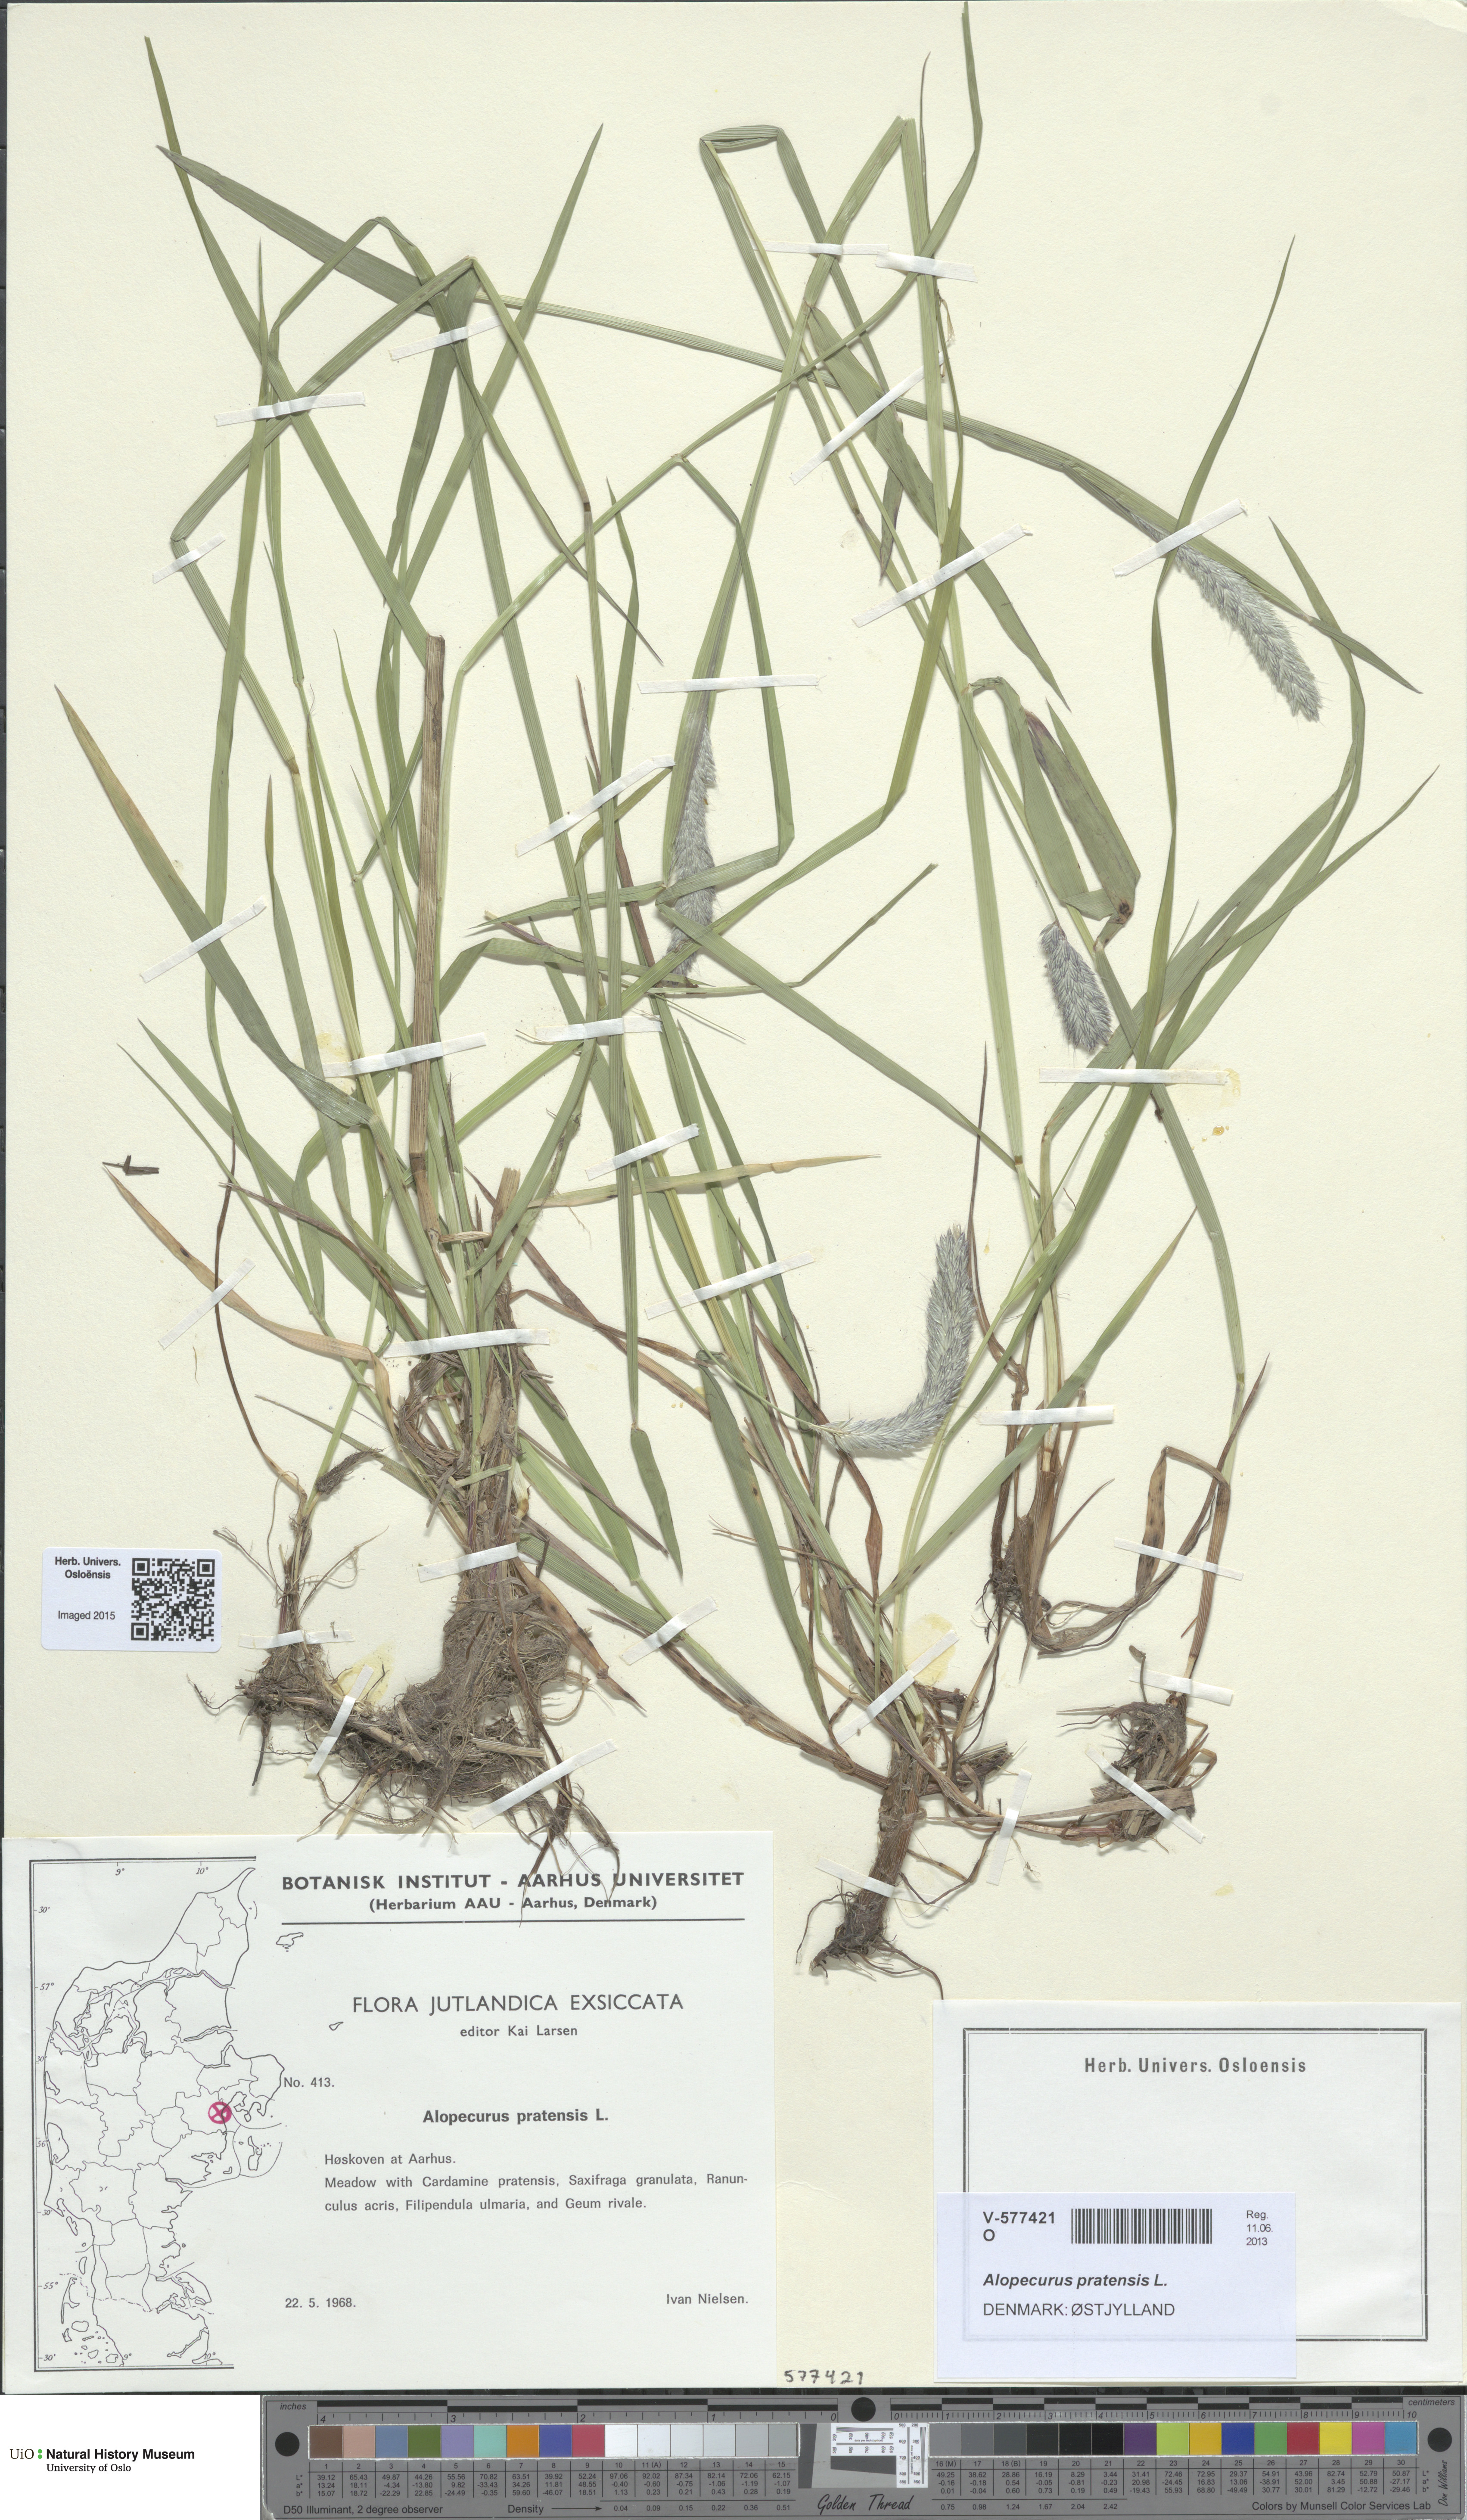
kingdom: Plantae
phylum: Tracheophyta
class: Liliopsida
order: Poales
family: Poaceae
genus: Alopecurus
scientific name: Alopecurus pratensis
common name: Meadow foxtail
